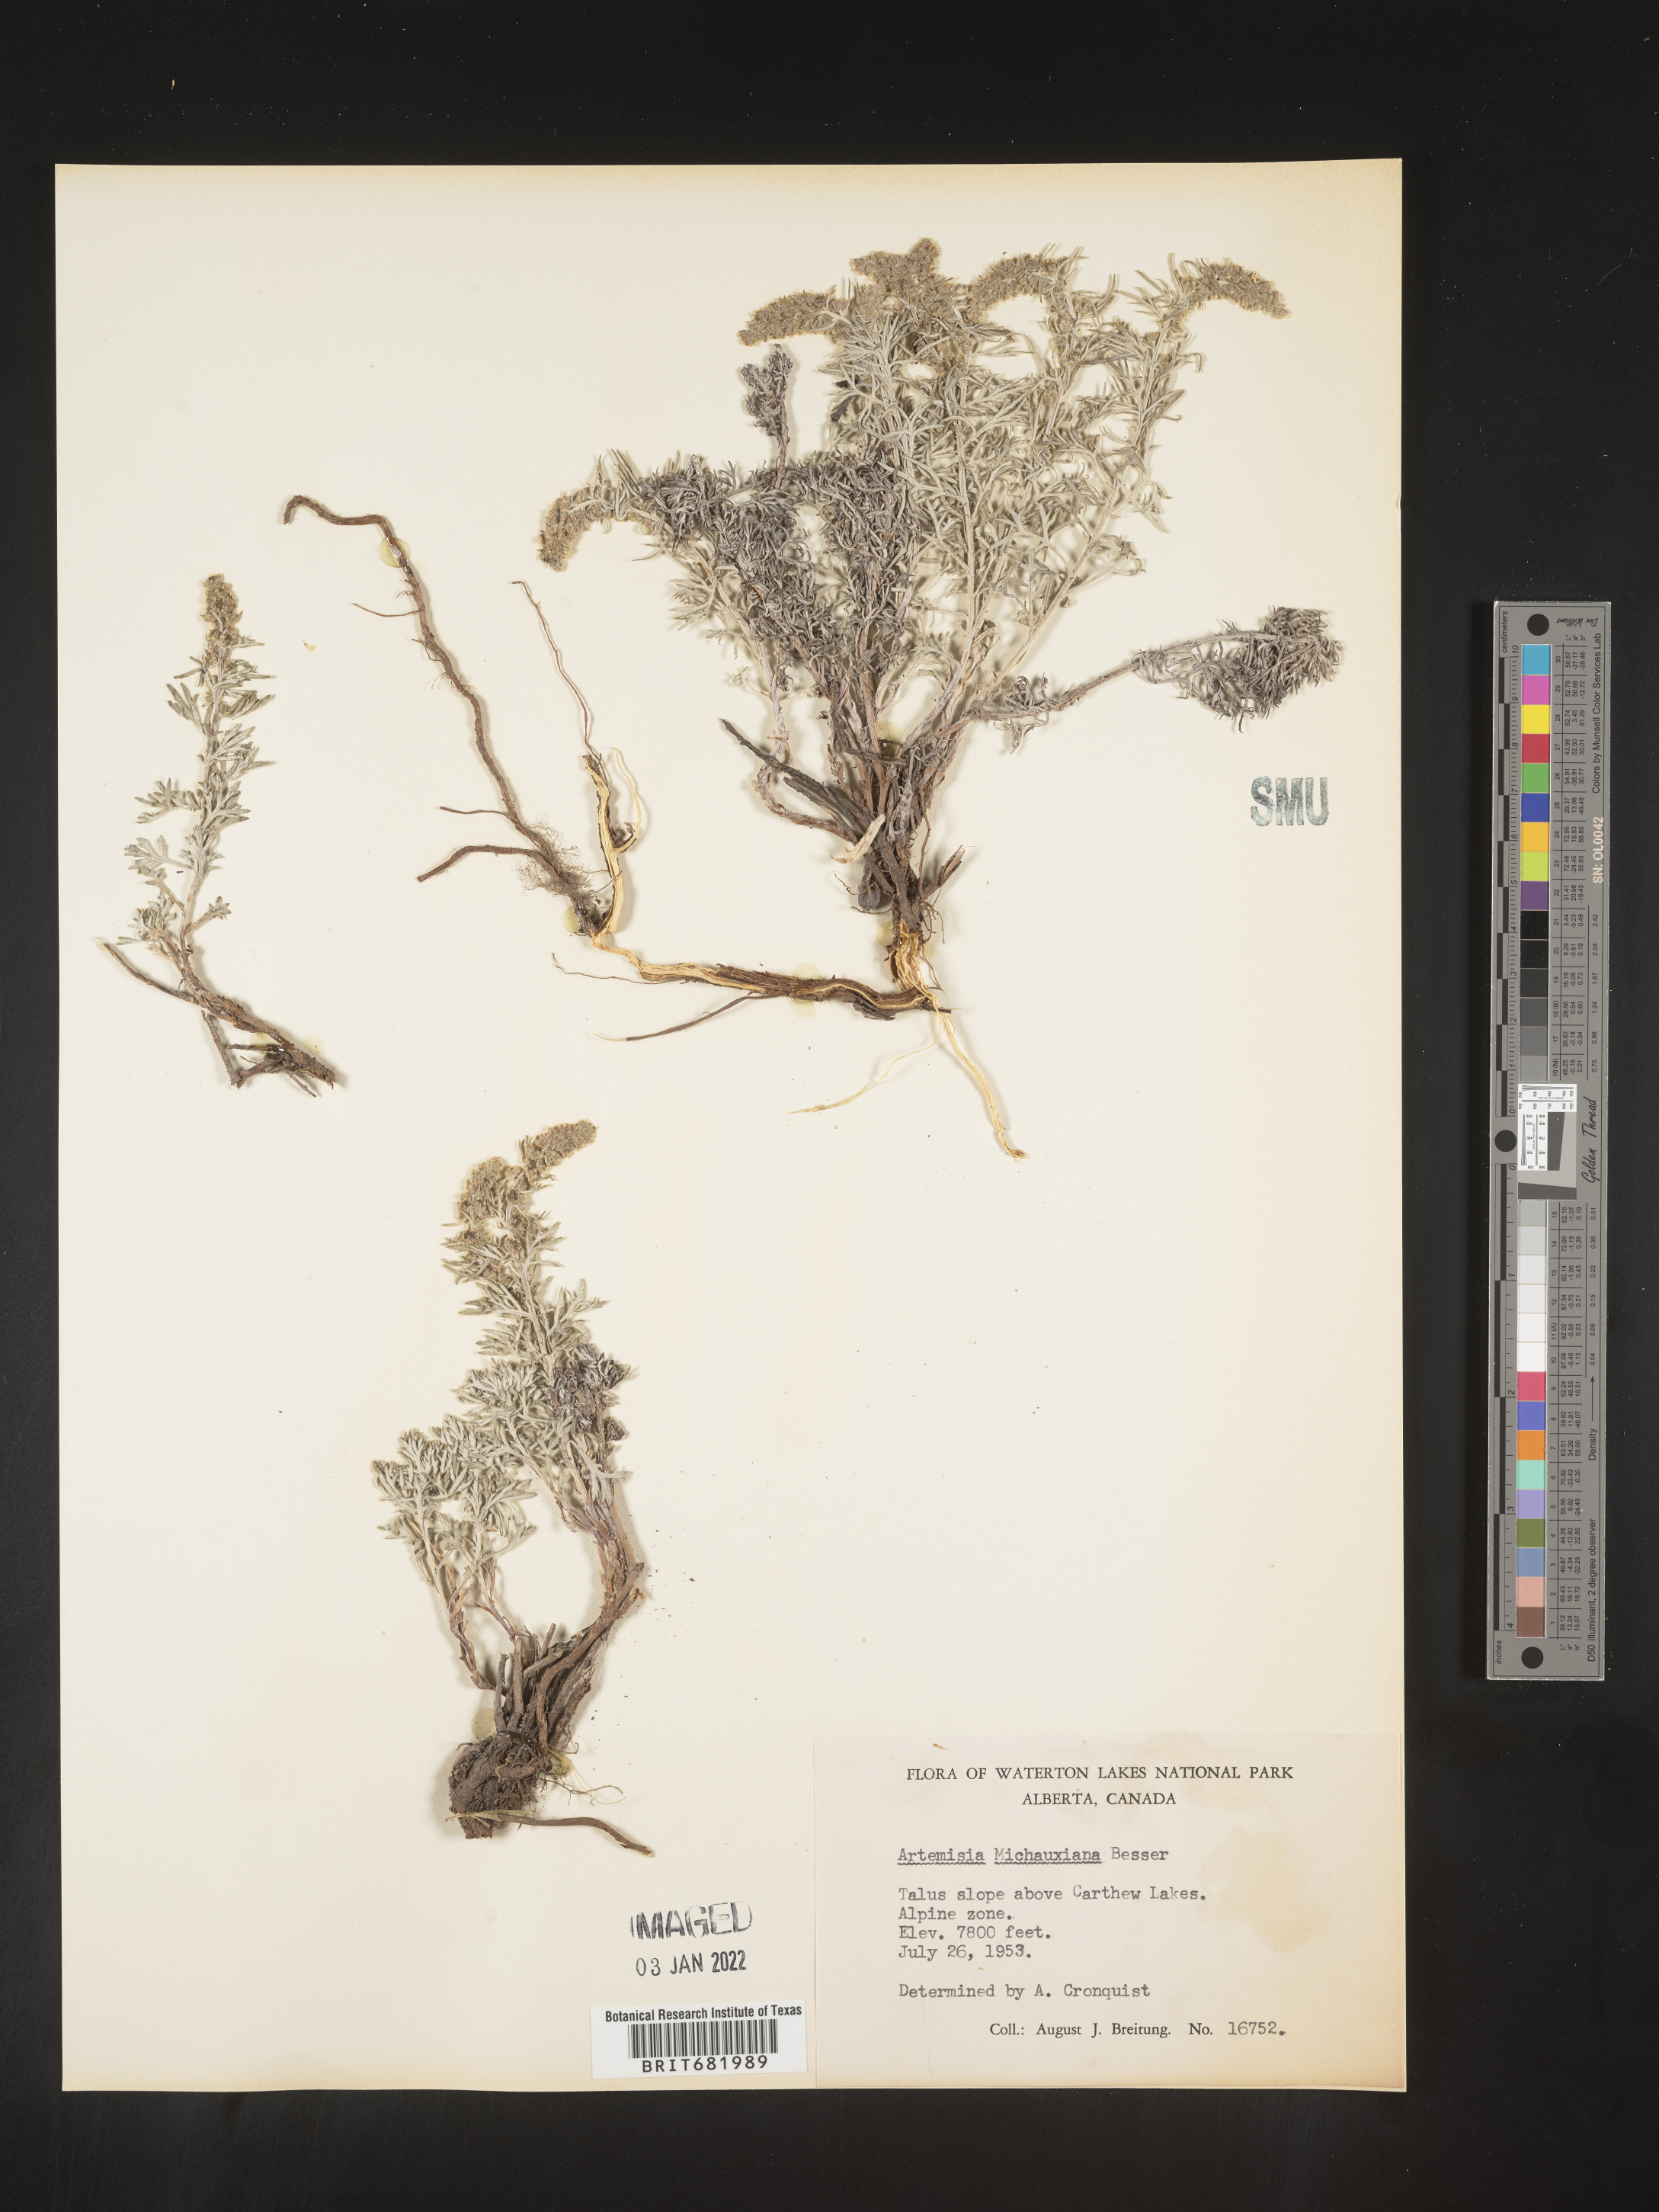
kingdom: Plantae
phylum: Tracheophyta
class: Magnoliopsida
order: Asterales
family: Asteraceae
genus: Artemisia
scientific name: Artemisia michauxiana
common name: Lemon sagewort
